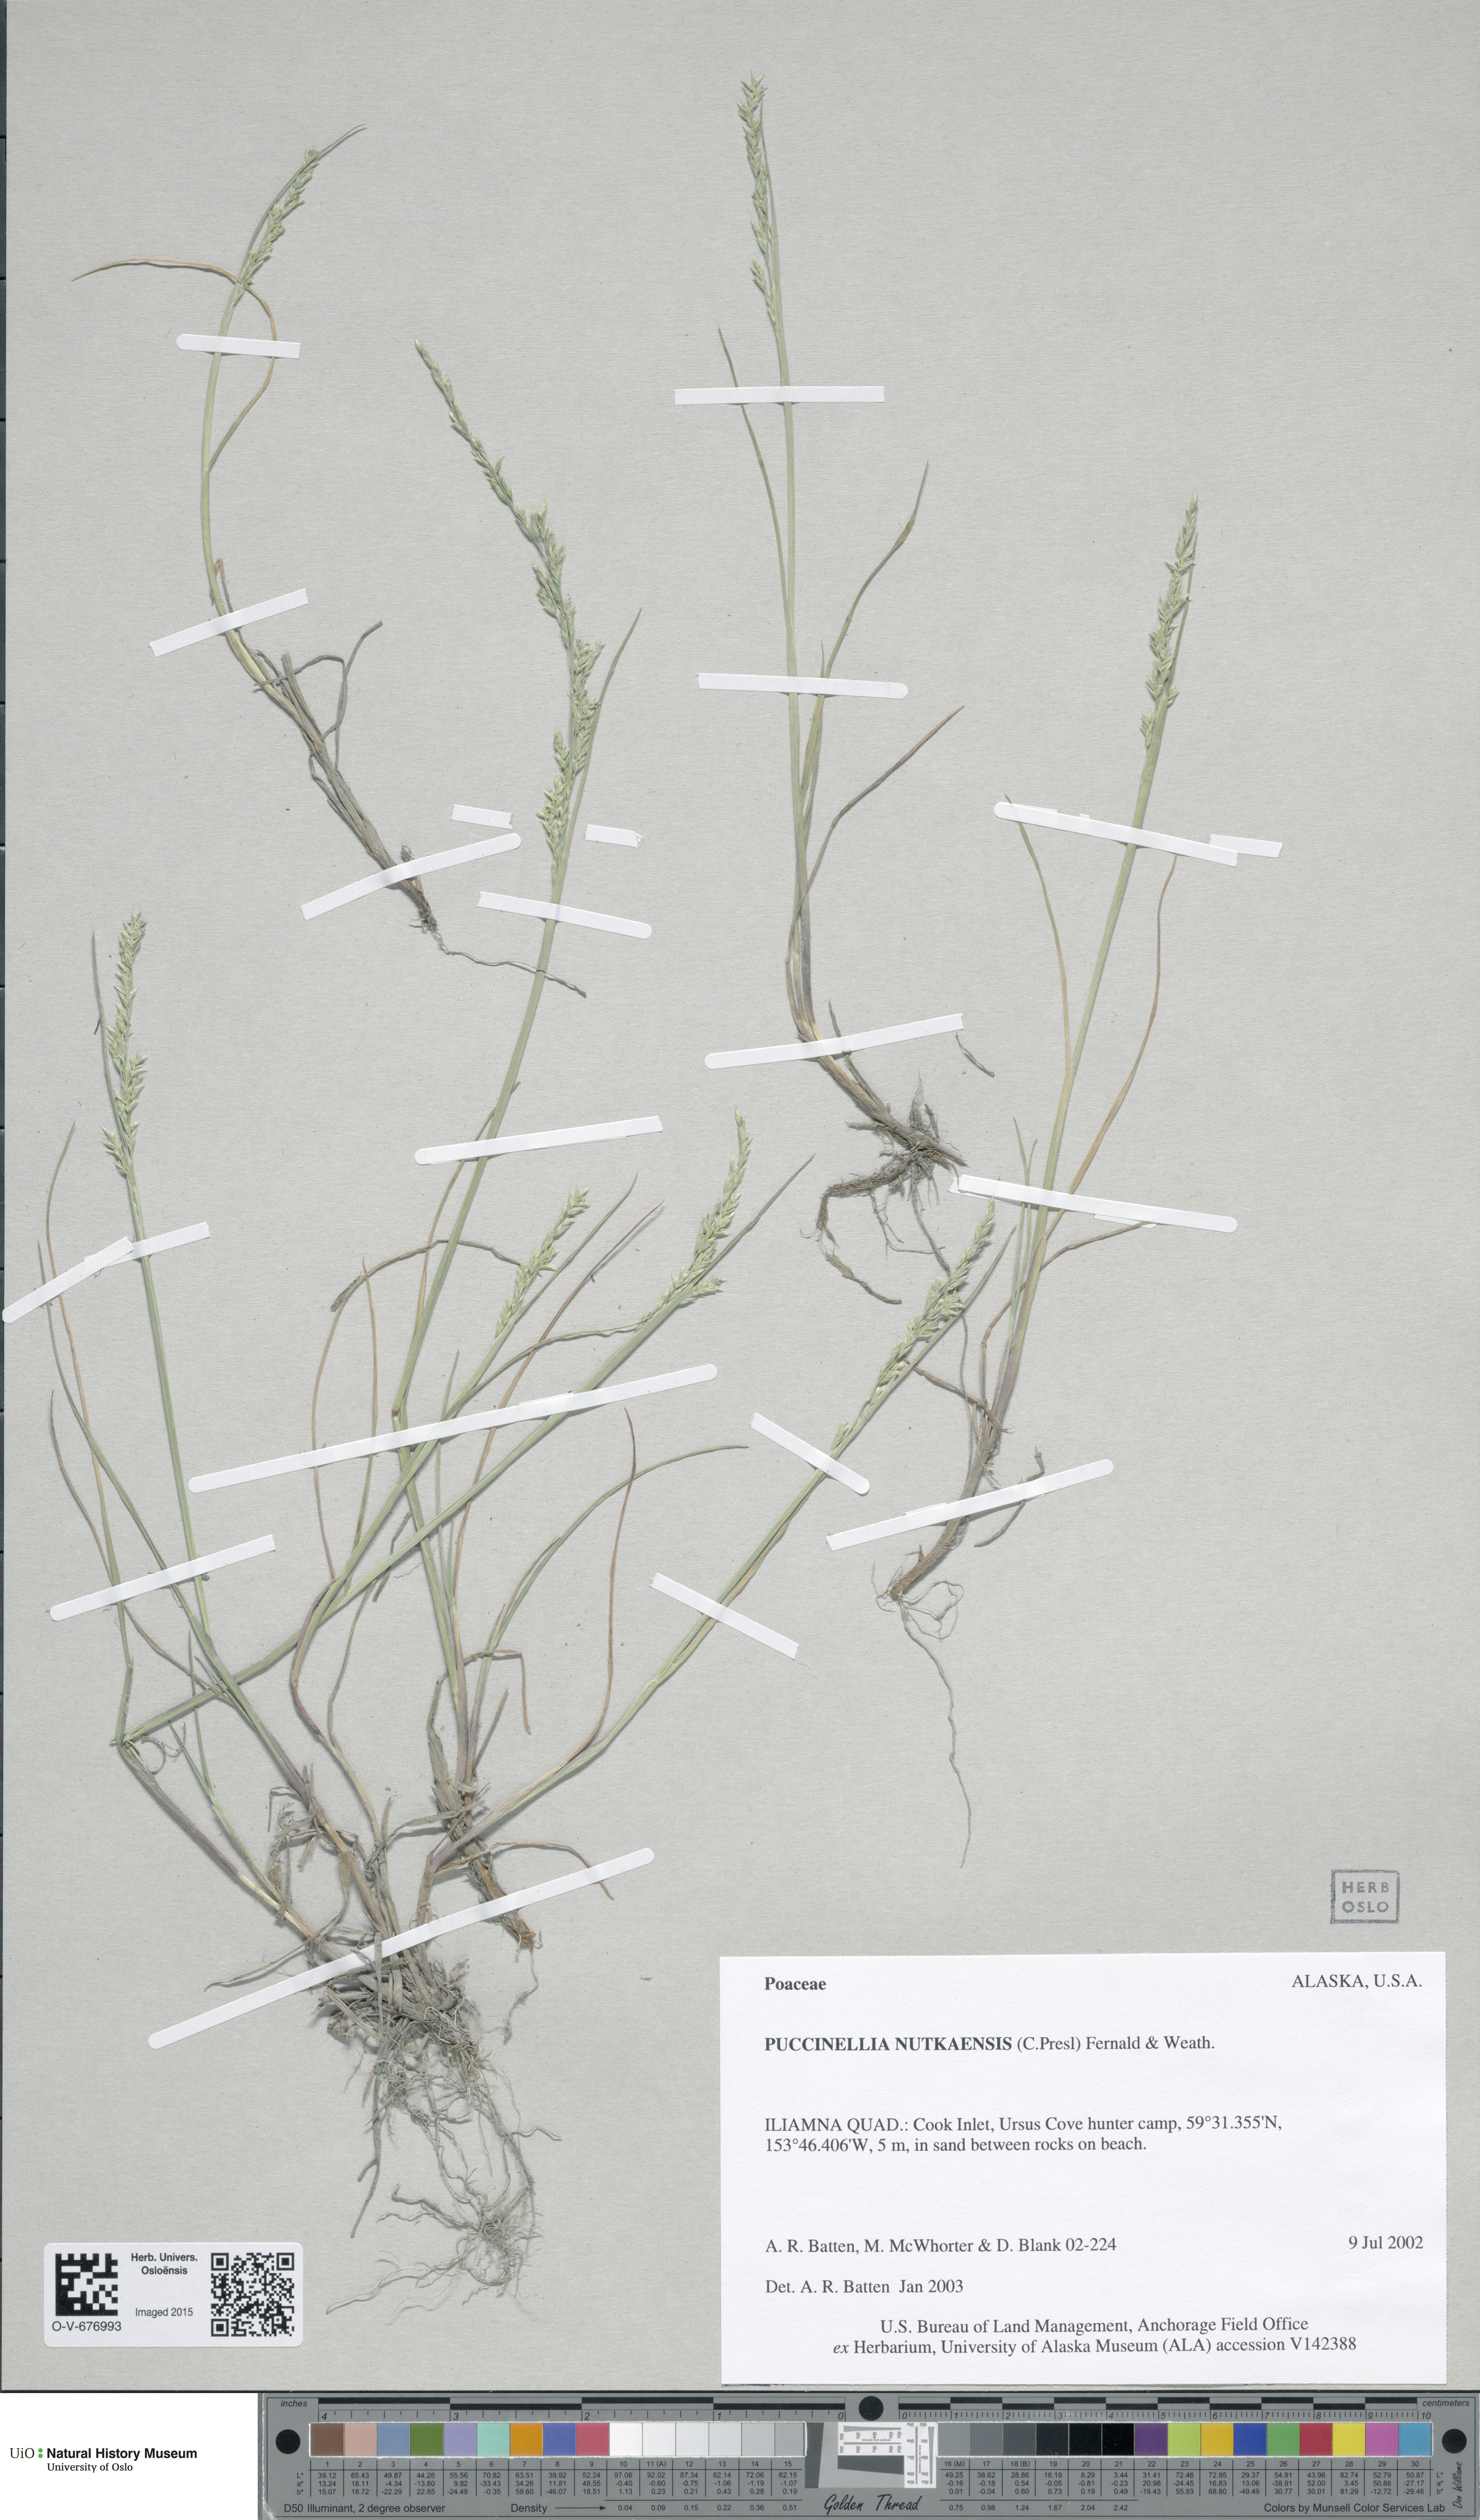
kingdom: Plantae
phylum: Tracheophyta
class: Liliopsida
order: Poales
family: Poaceae
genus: Puccinellia
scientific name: Puccinellia nutkaensis
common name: Nootka alkaligrass
